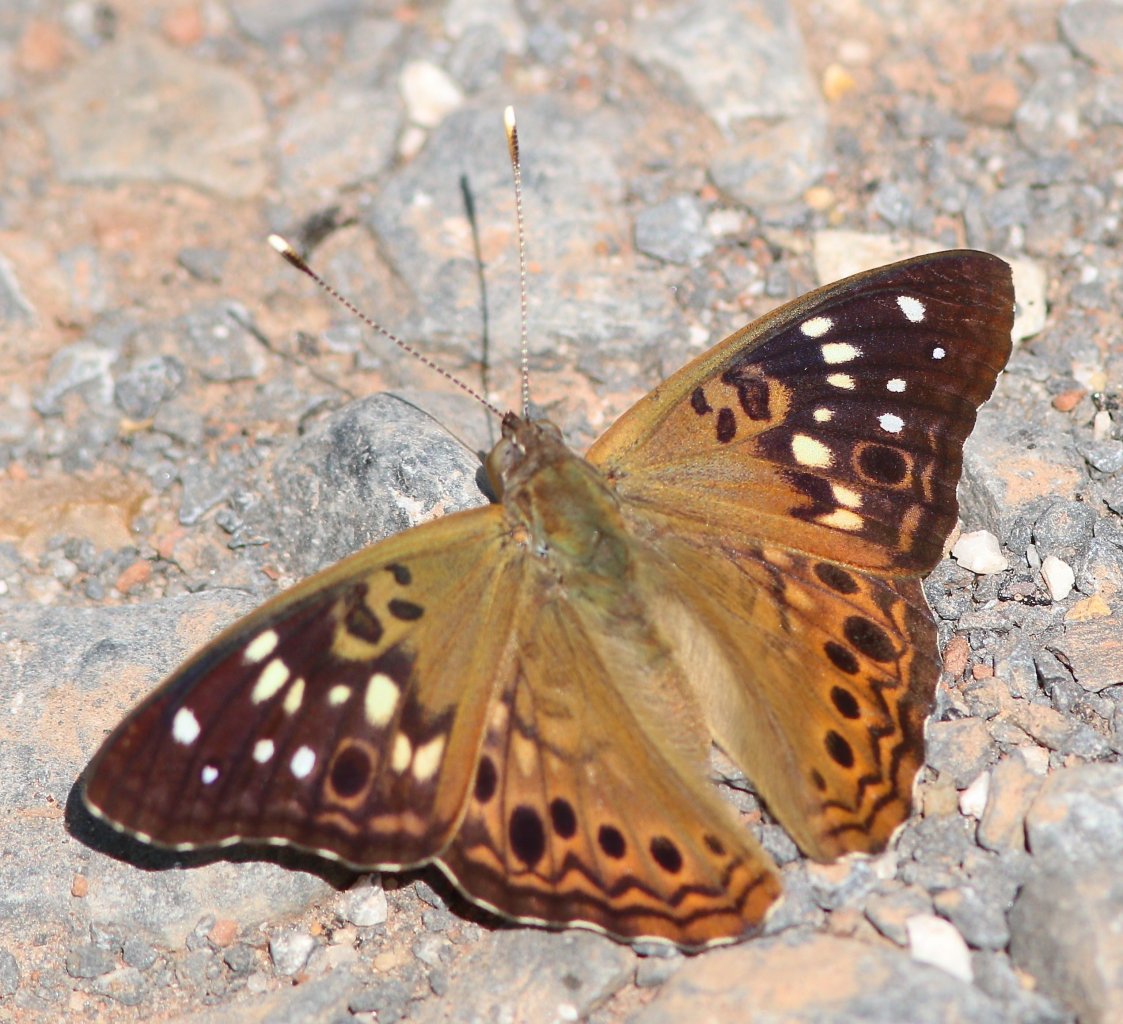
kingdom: Animalia
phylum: Arthropoda
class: Insecta
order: Lepidoptera
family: Nymphalidae
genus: Asterocampa
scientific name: Asterocampa celtis
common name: Hackberry Emperor
